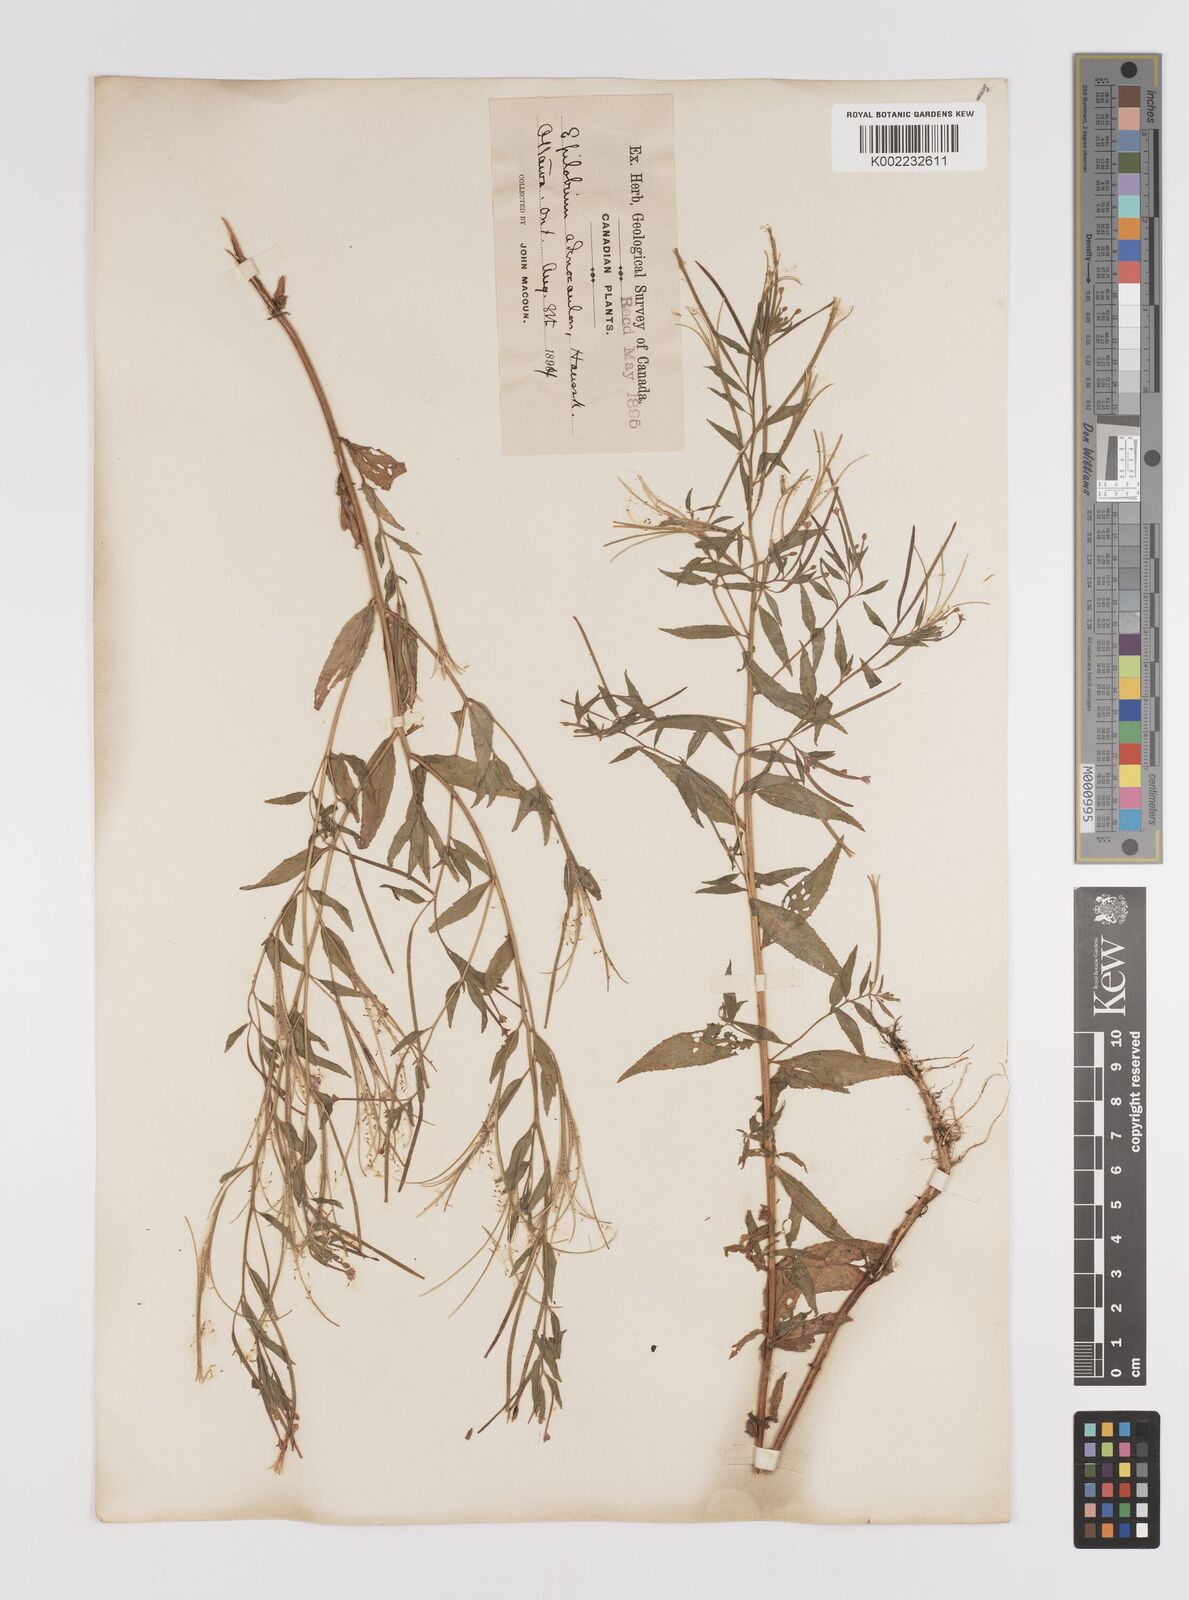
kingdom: Plantae
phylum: Tracheophyta
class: Magnoliopsida
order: Myrtales
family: Onagraceae
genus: Epilobium
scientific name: Epilobium ciliatum
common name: American willowherb
